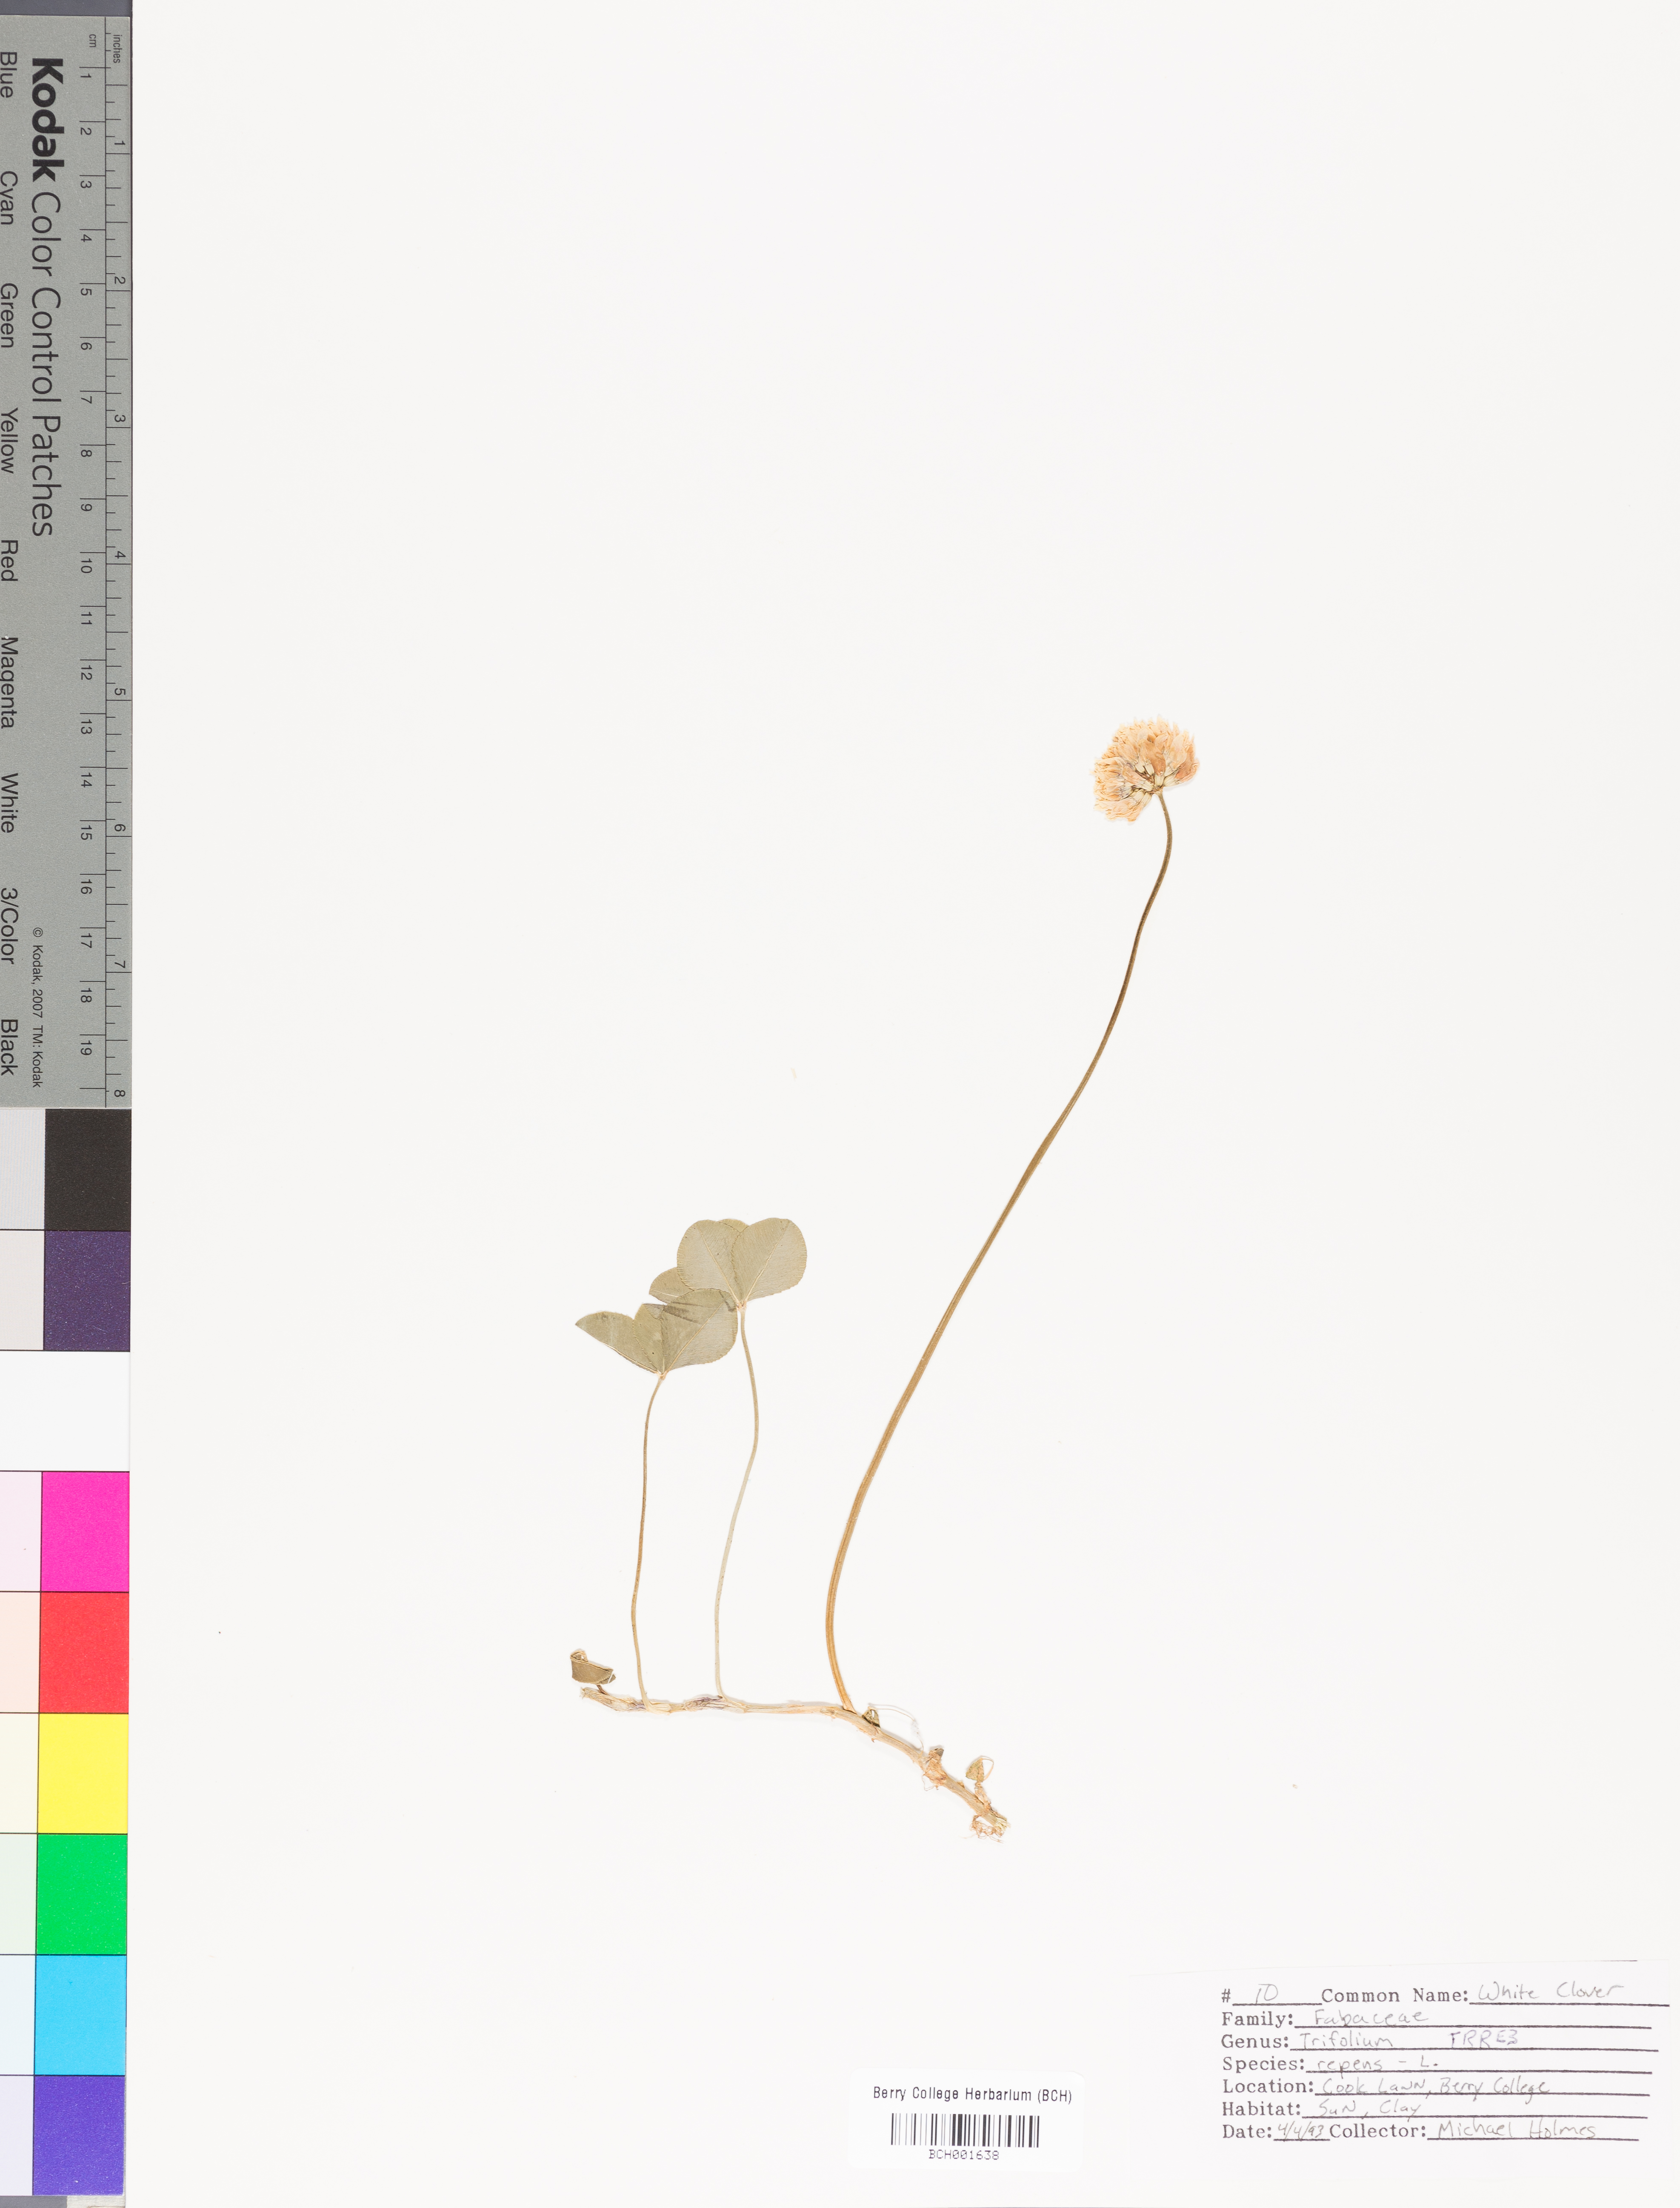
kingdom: Plantae
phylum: Tracheophyta
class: Magnoliopsida
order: Fabales
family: Fabaceae
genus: Trifolium
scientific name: Trifolium repens
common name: White clover
